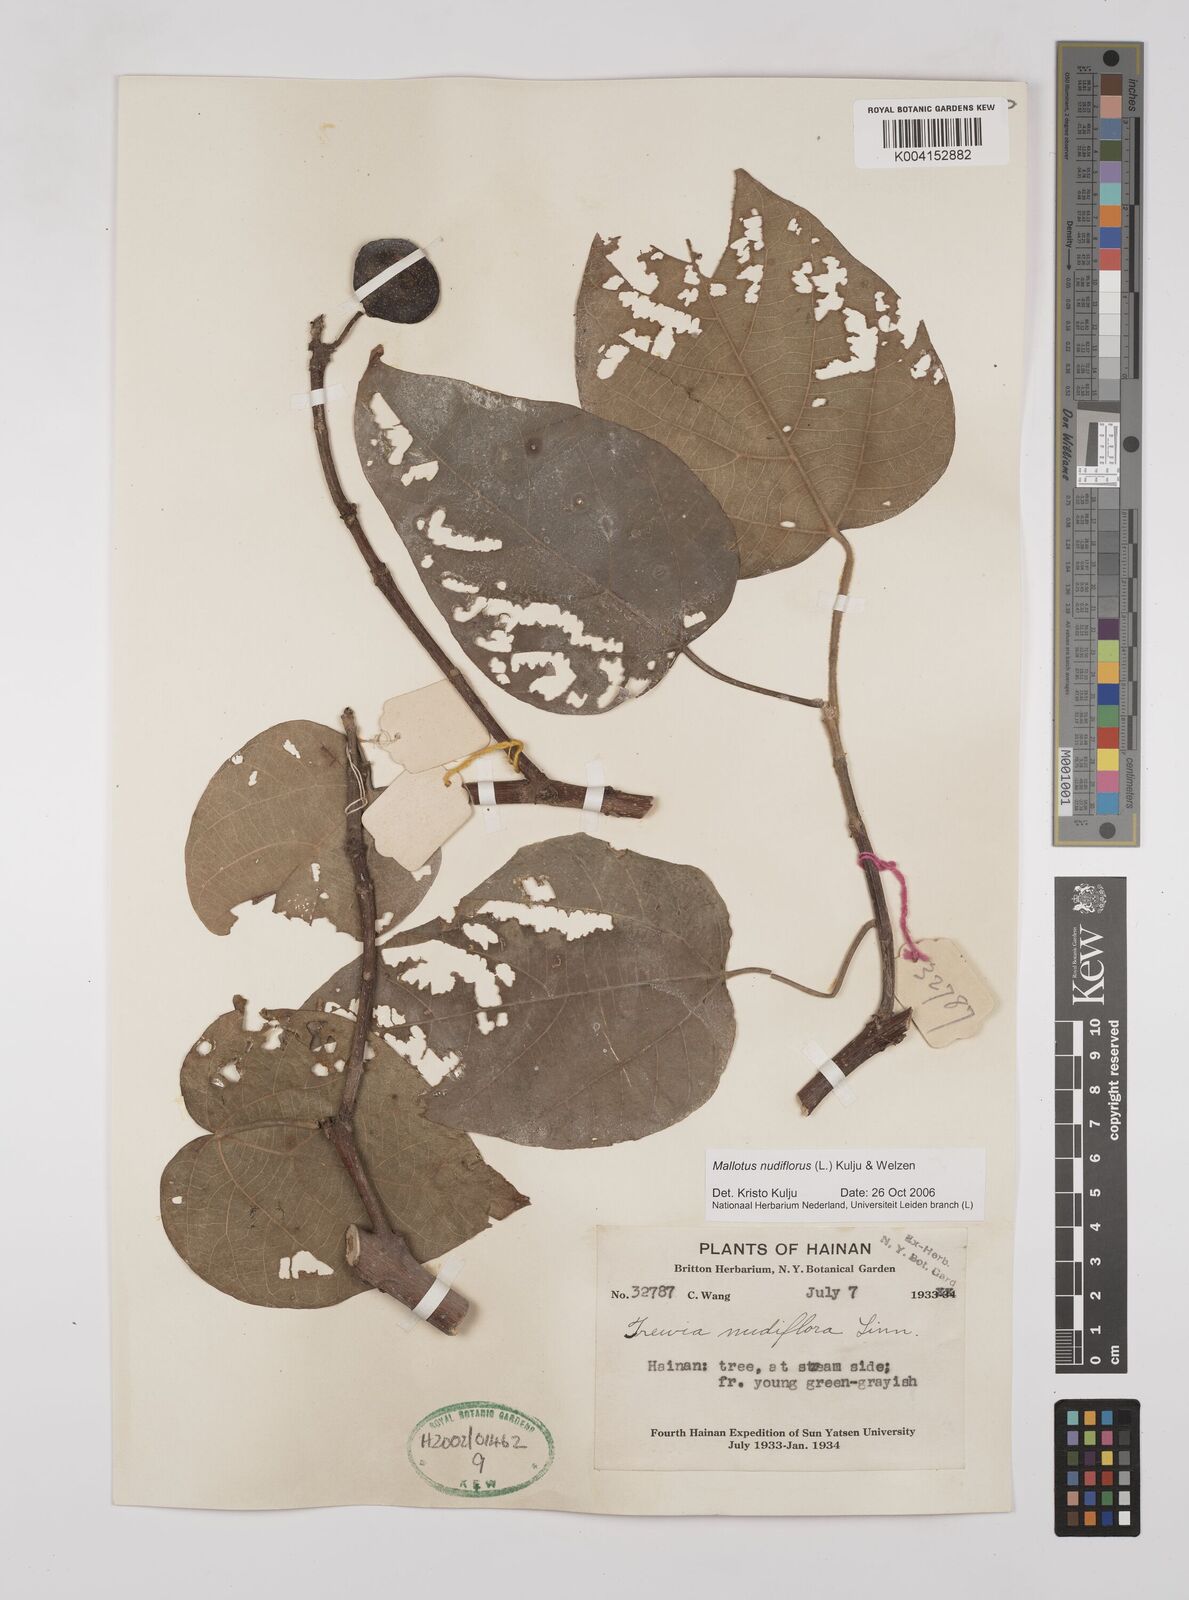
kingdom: Plantae
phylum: Tracheophyta
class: Magnoliopsida
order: Malpighiales
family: Euphorbiaceae
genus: Mallotus
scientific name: Mallotus nudiflorus
